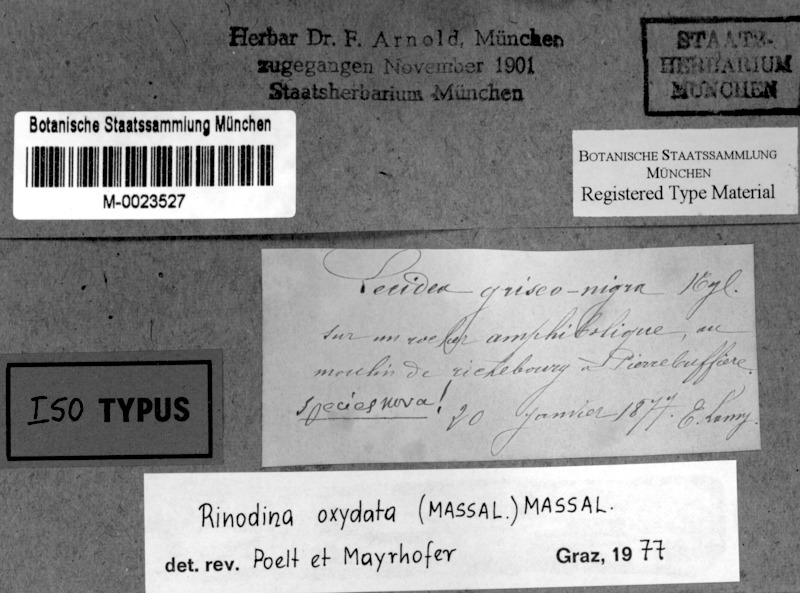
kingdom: Fungi
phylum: Ascomycota
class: Lecanoromycetes
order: Caliciales
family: Physciaceae
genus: Mischoblastia
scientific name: Mischoblastia oxydata
